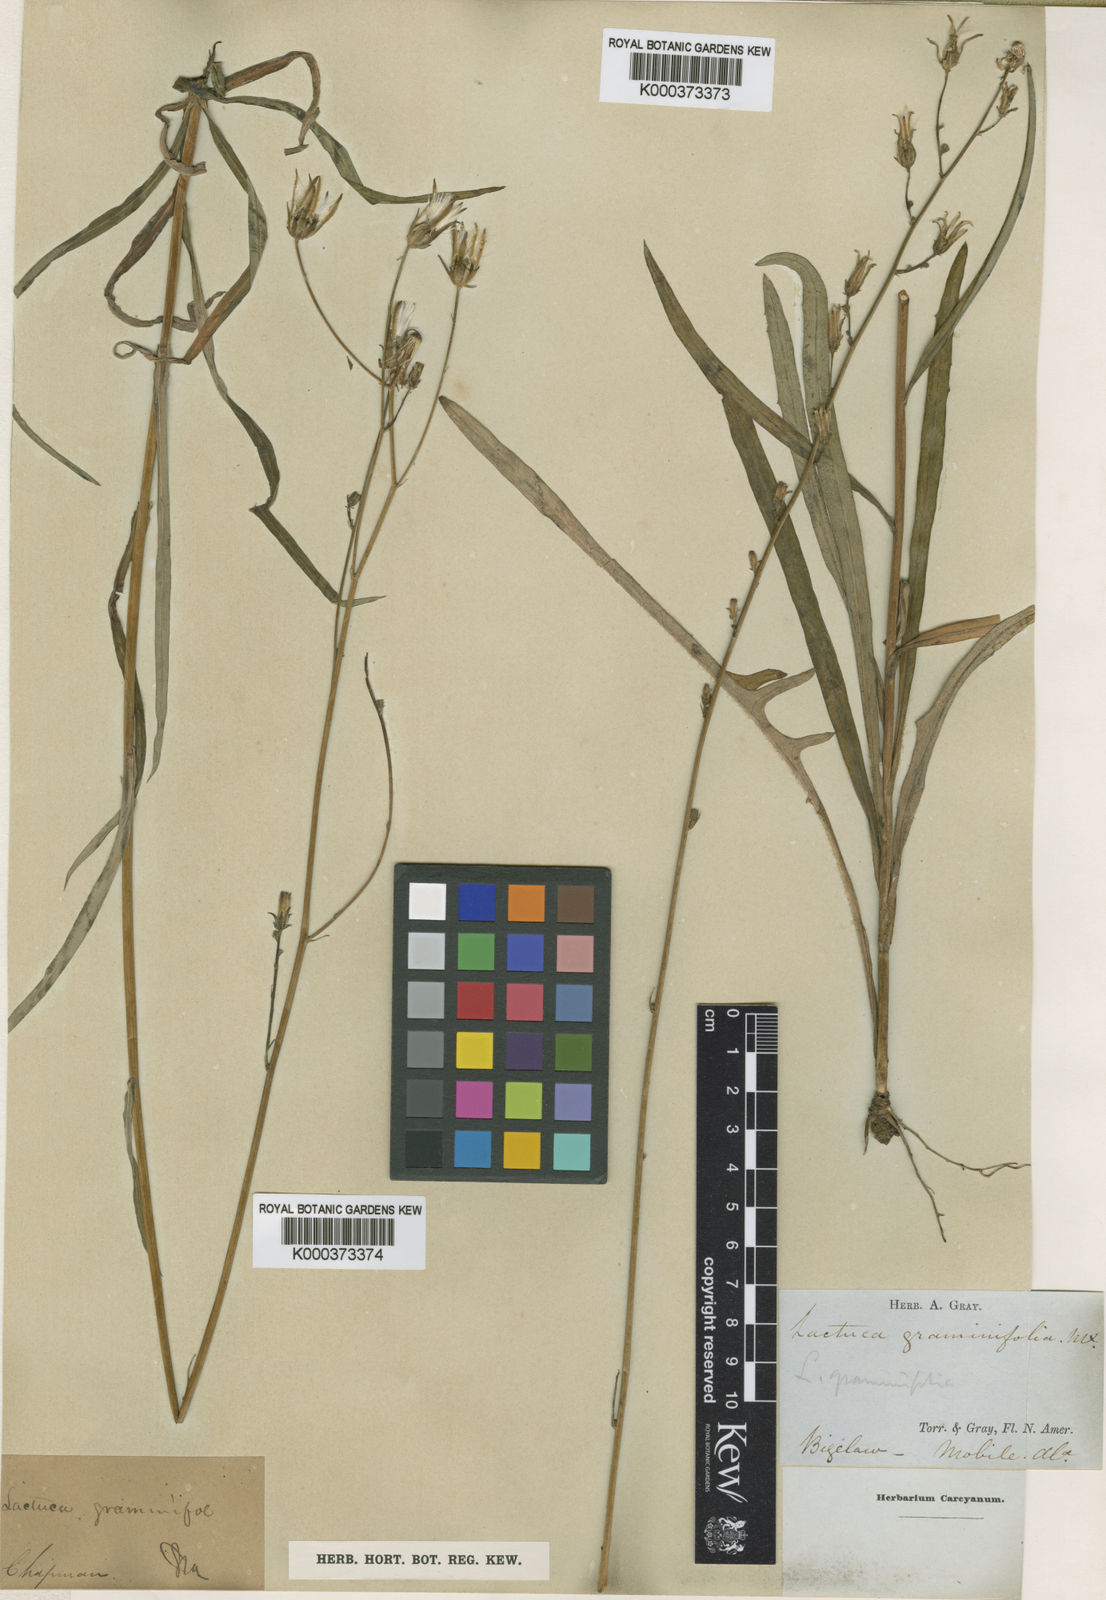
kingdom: Plantae
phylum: Tracheophyta
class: Magnoliopsida
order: Asterales
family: Asteraceae
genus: Lactuca
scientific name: Lactuca graminifolia
